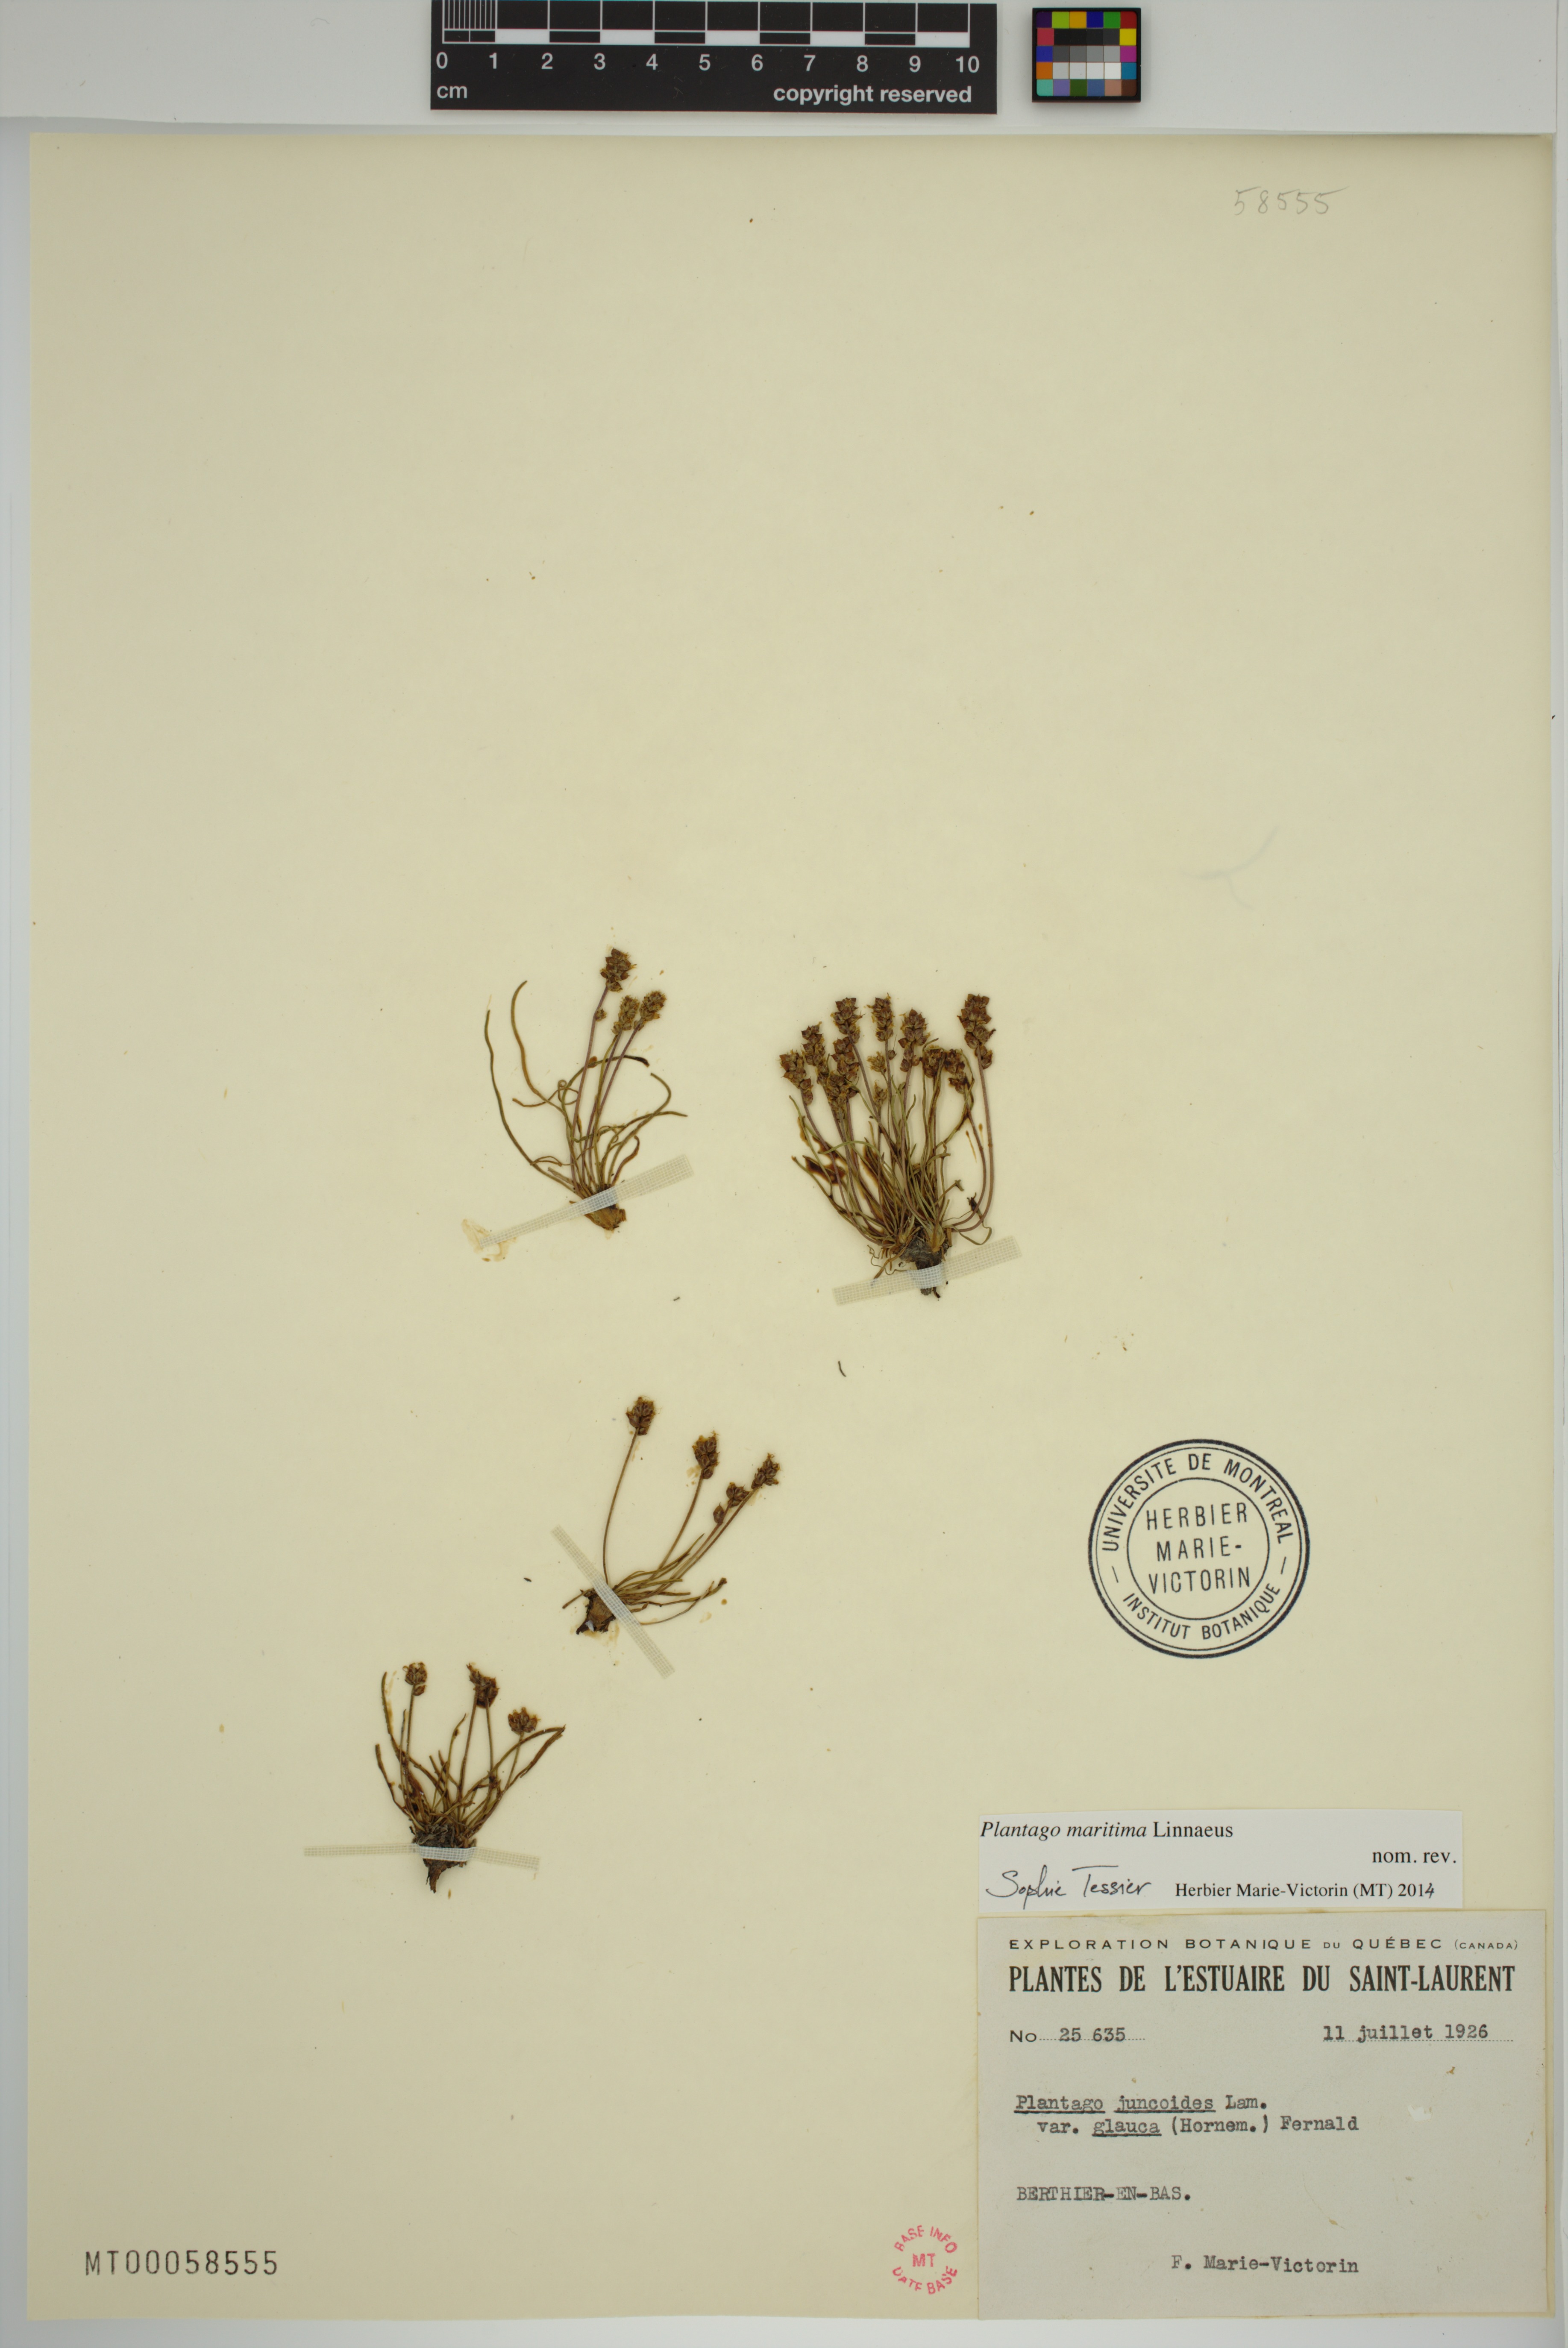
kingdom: Plantae
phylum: Tracheophyta
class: Magnoliopsida
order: Lamiales
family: Plantaginaceae
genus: Plantago
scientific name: Plantago maritima
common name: Sea plantain
